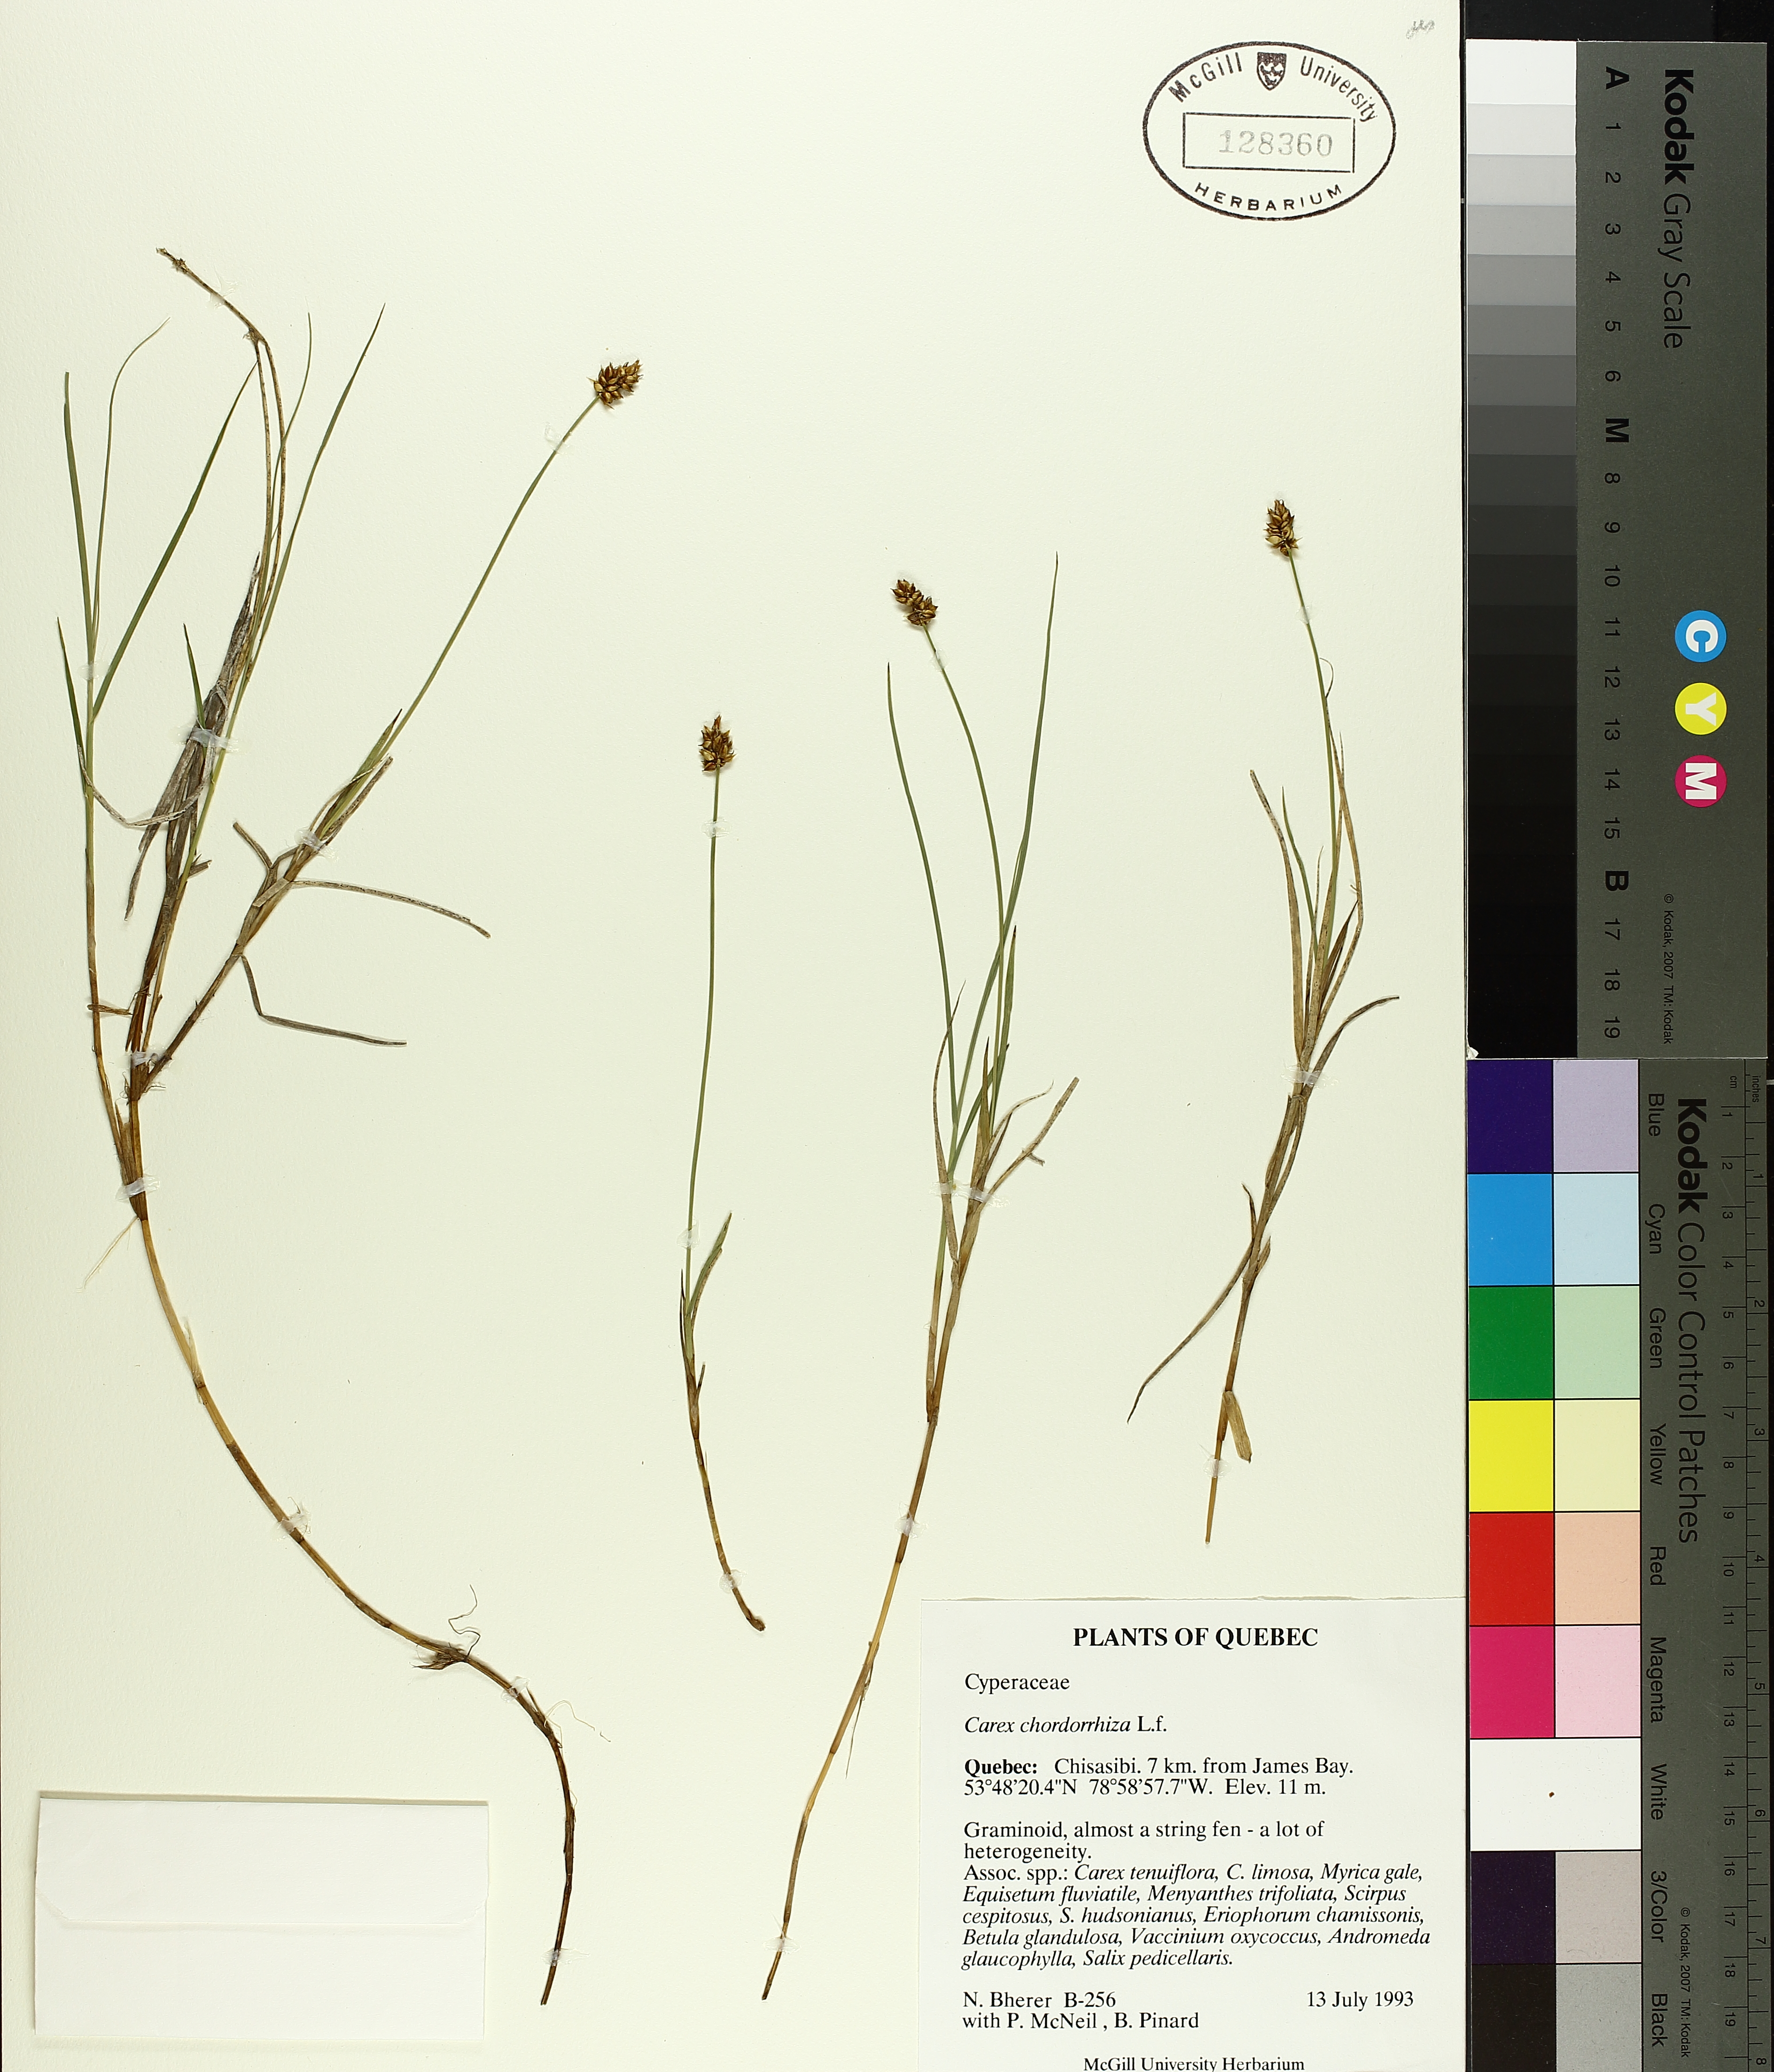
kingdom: Plantae
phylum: Tracheophyta
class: Liliopsida
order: Poales
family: Cyperaceae
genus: Carex
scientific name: Carex
